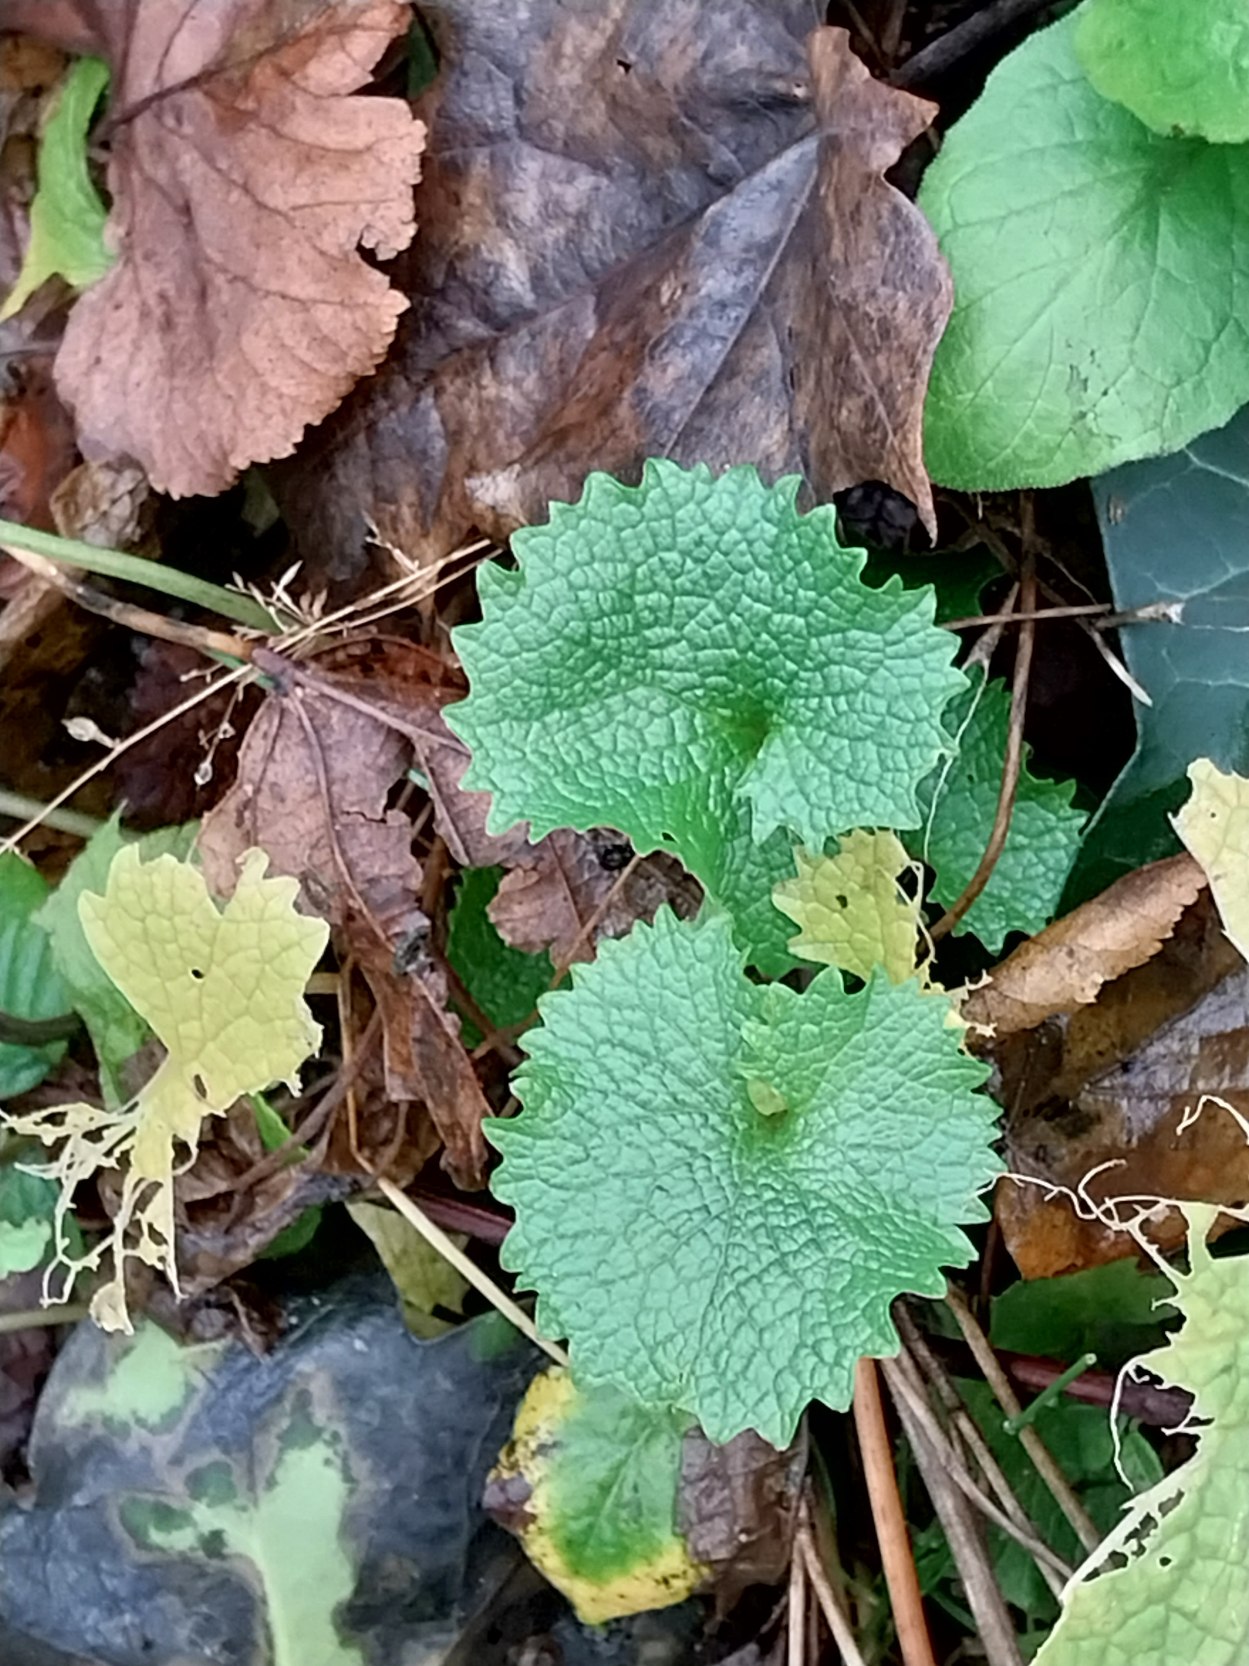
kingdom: Plantae
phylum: Tracheophyta
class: Magnoliopsida
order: Brassicales
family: Brassicaceae
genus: Alliaria
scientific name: Alliaria petiolata
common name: Løgkarse
